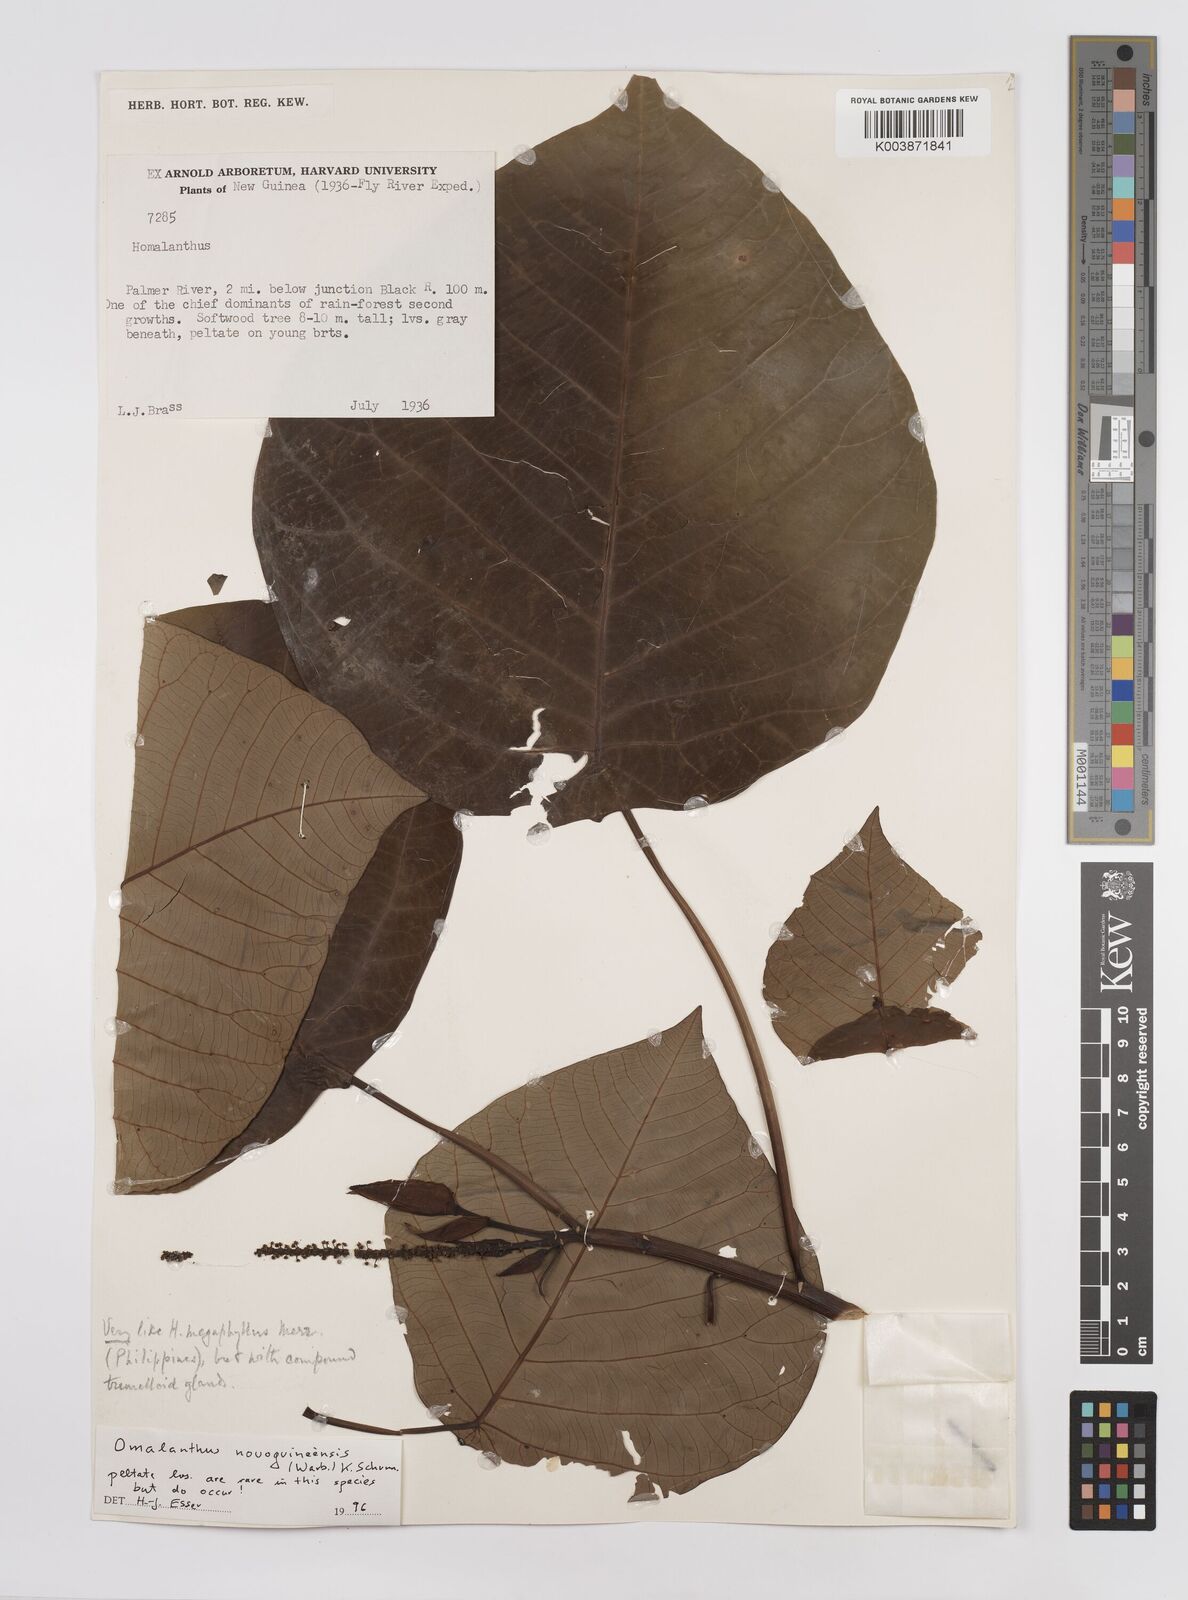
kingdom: Plantae
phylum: Tracheophyta
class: Magnoliopsida
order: Malpighiales
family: Euphorbiaceae
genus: Homalanthus
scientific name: Homalanthus novoguineensis
